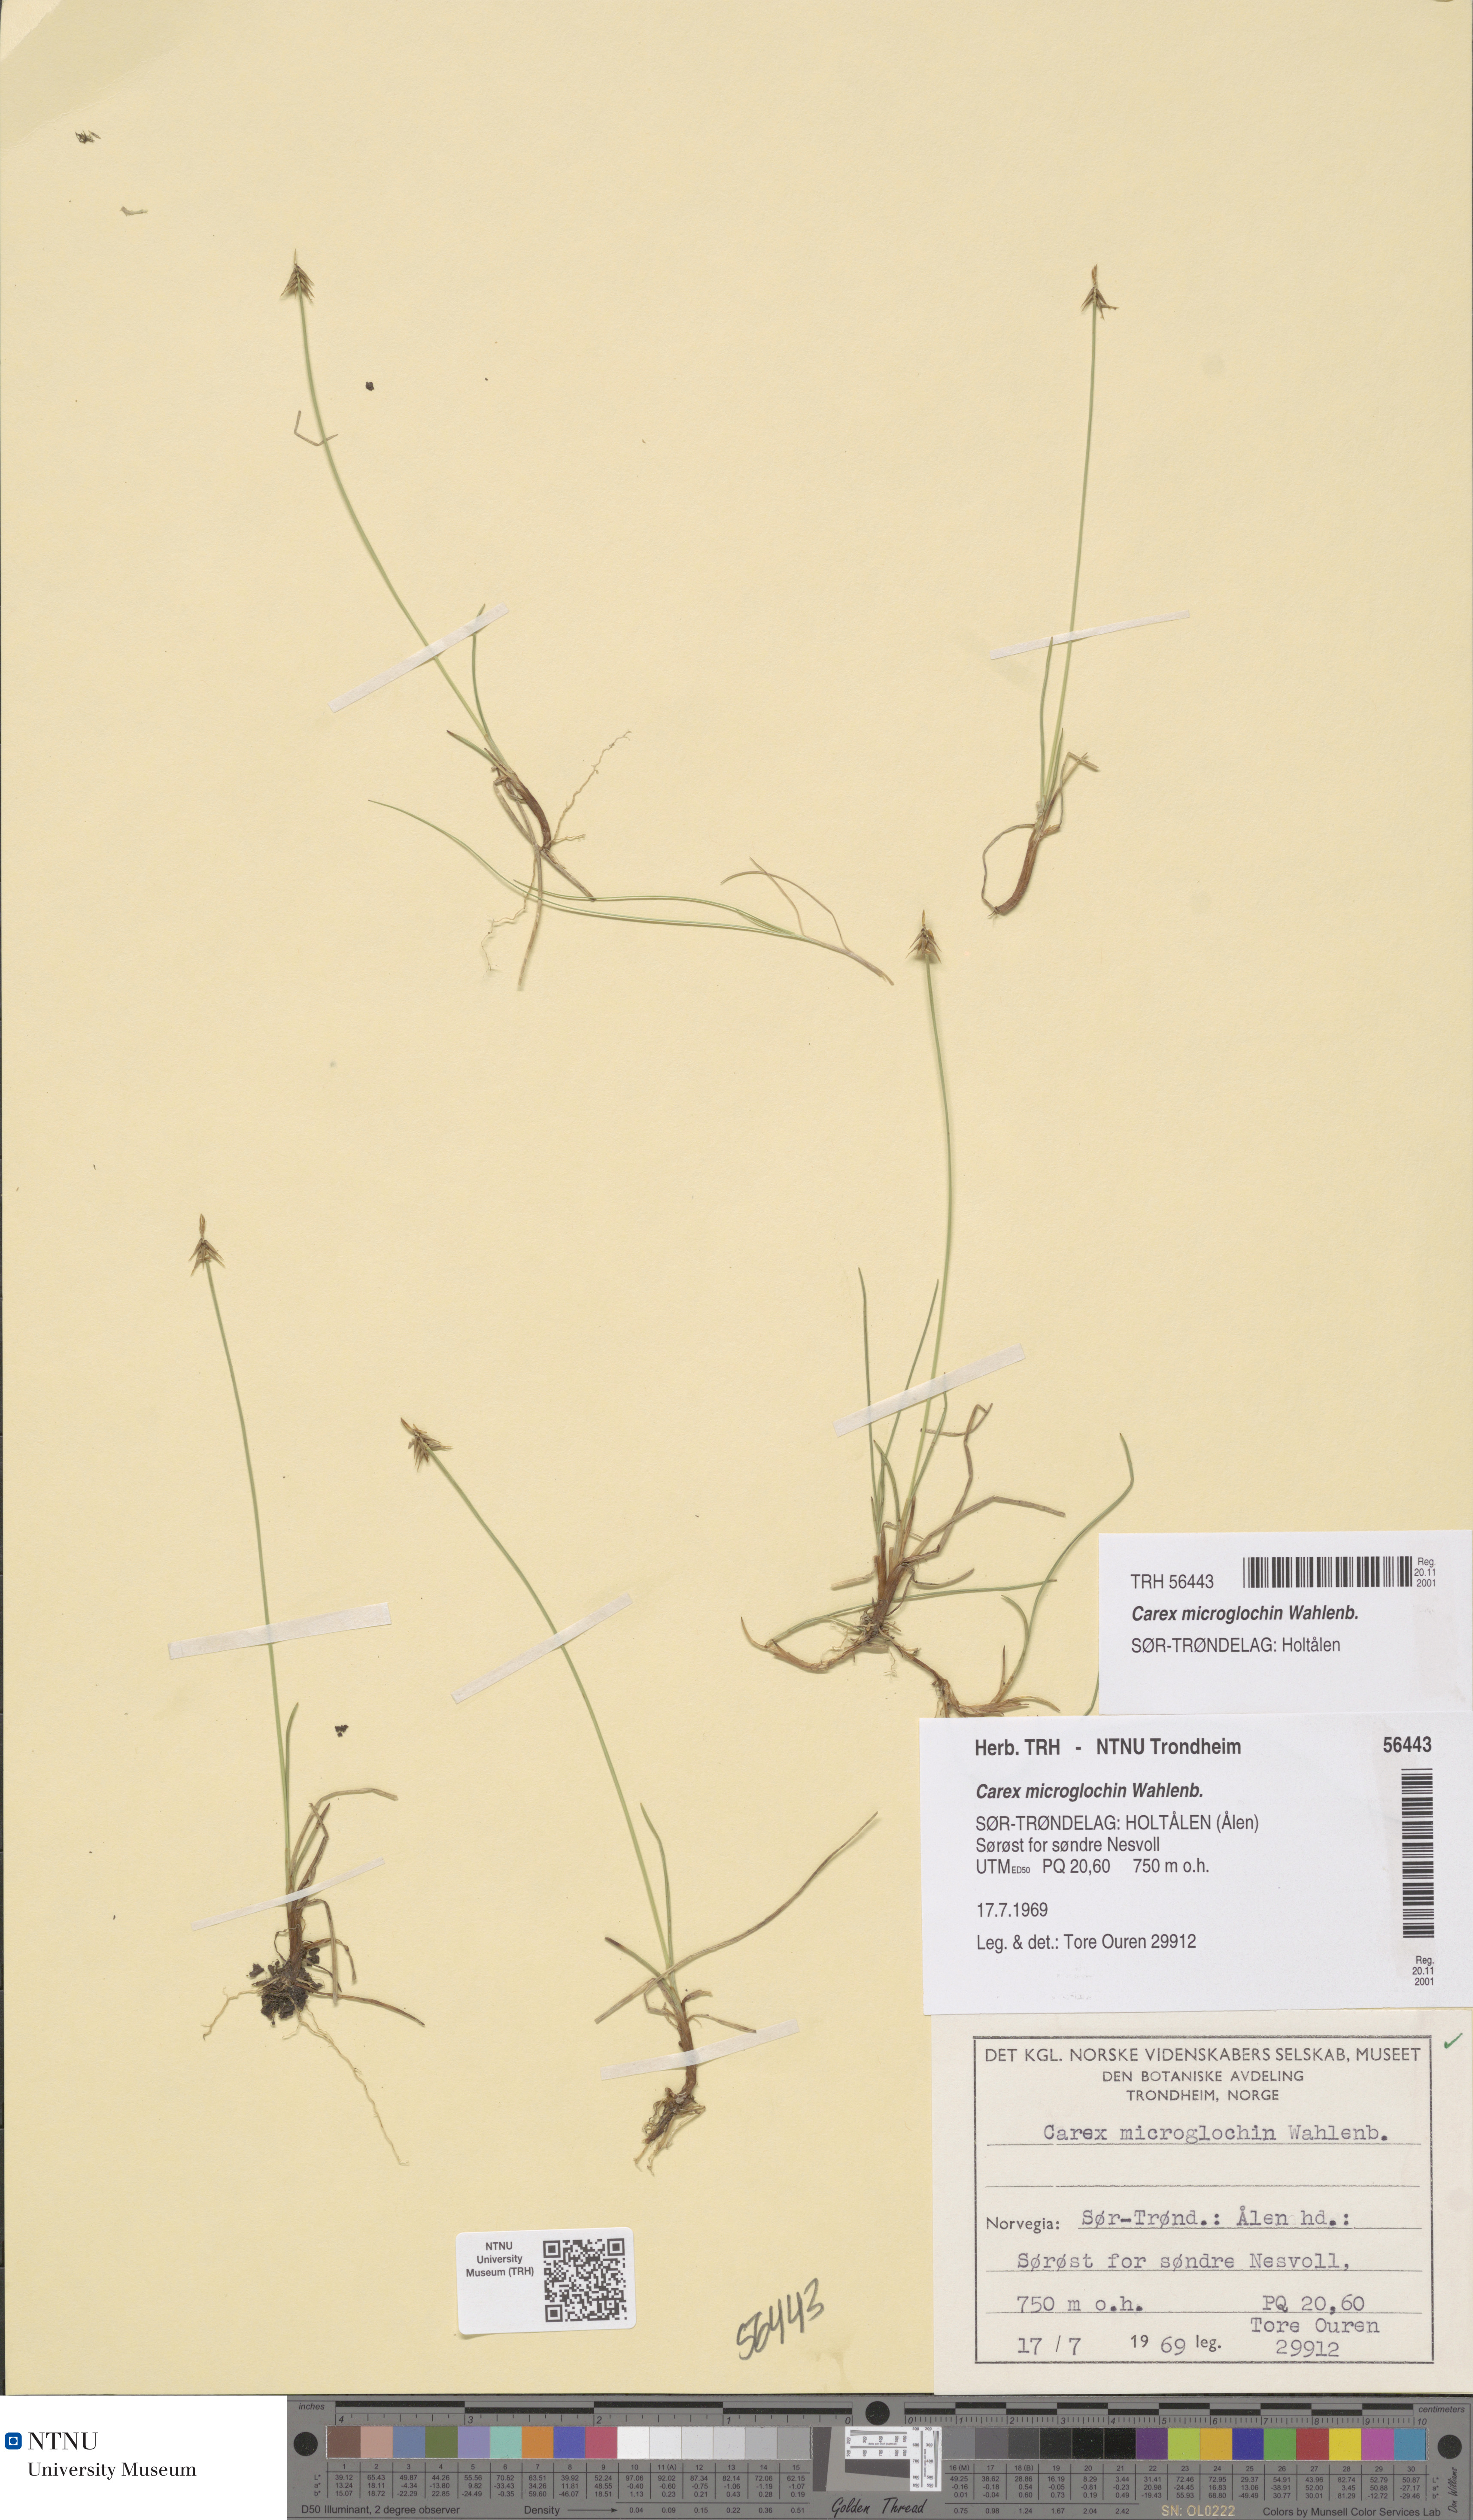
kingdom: Plantae
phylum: Tracheophyta
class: Liliopsida
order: Poales
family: Cyperaceae
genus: Carex
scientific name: Carex microglochin
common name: Bristle sedge
